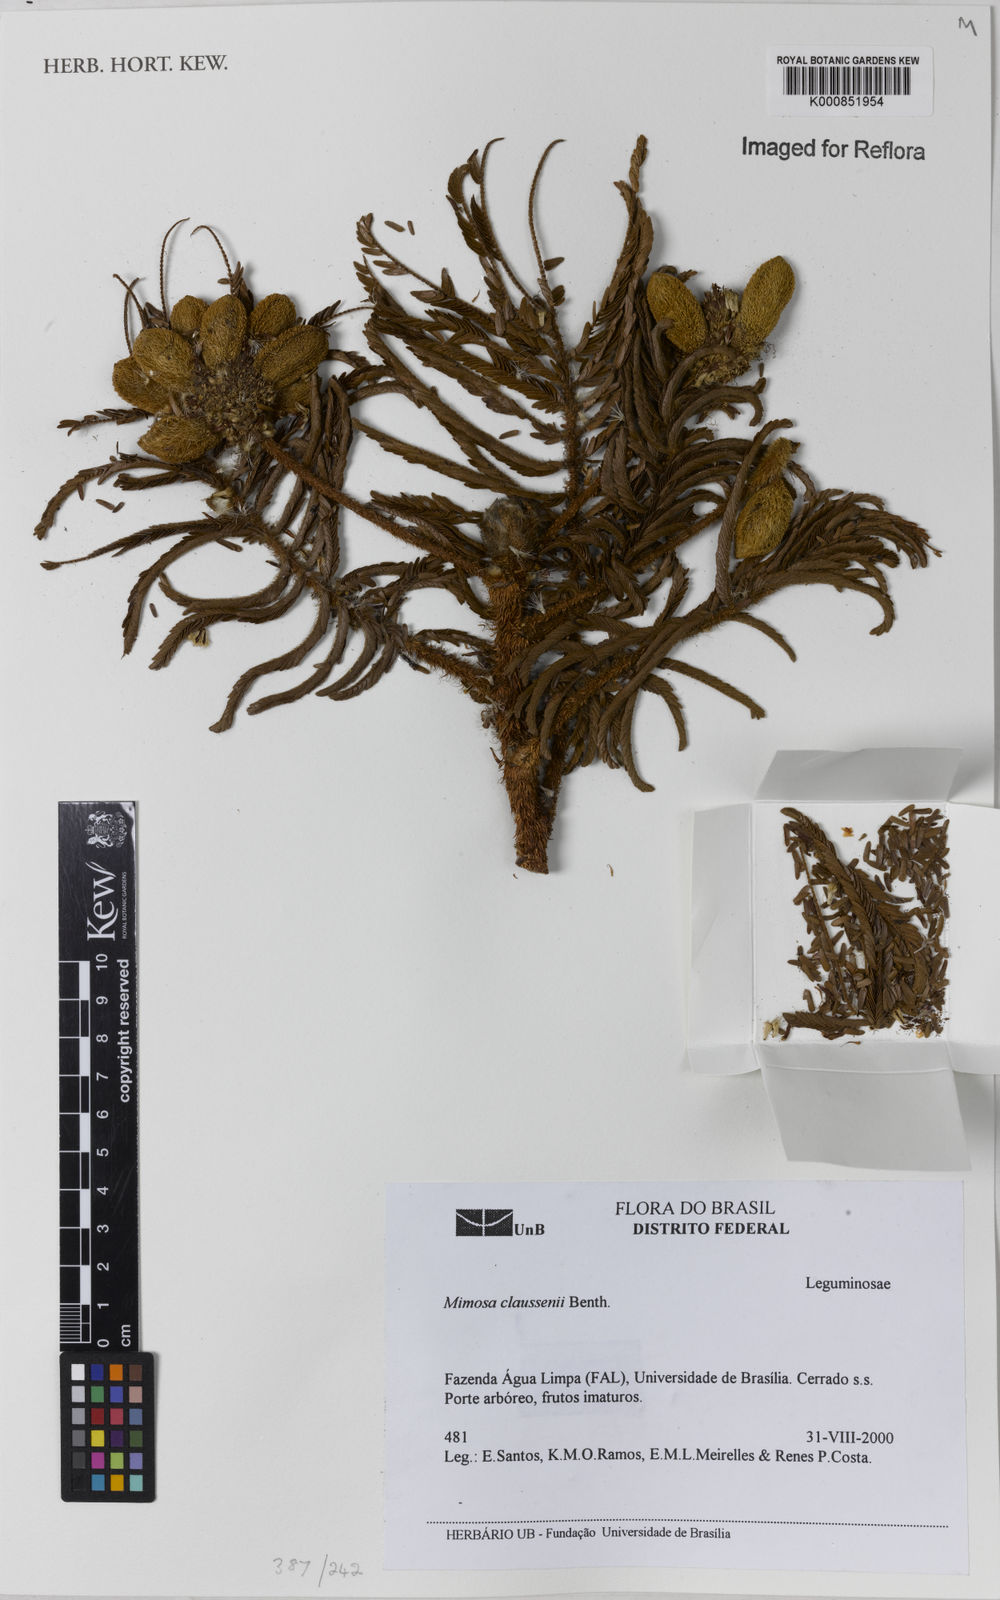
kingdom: Plantae
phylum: Tracheophyta
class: Magnoliopsida
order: Fabales
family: Fabaceae
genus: Mimosa
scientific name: Mimosa claussenii
